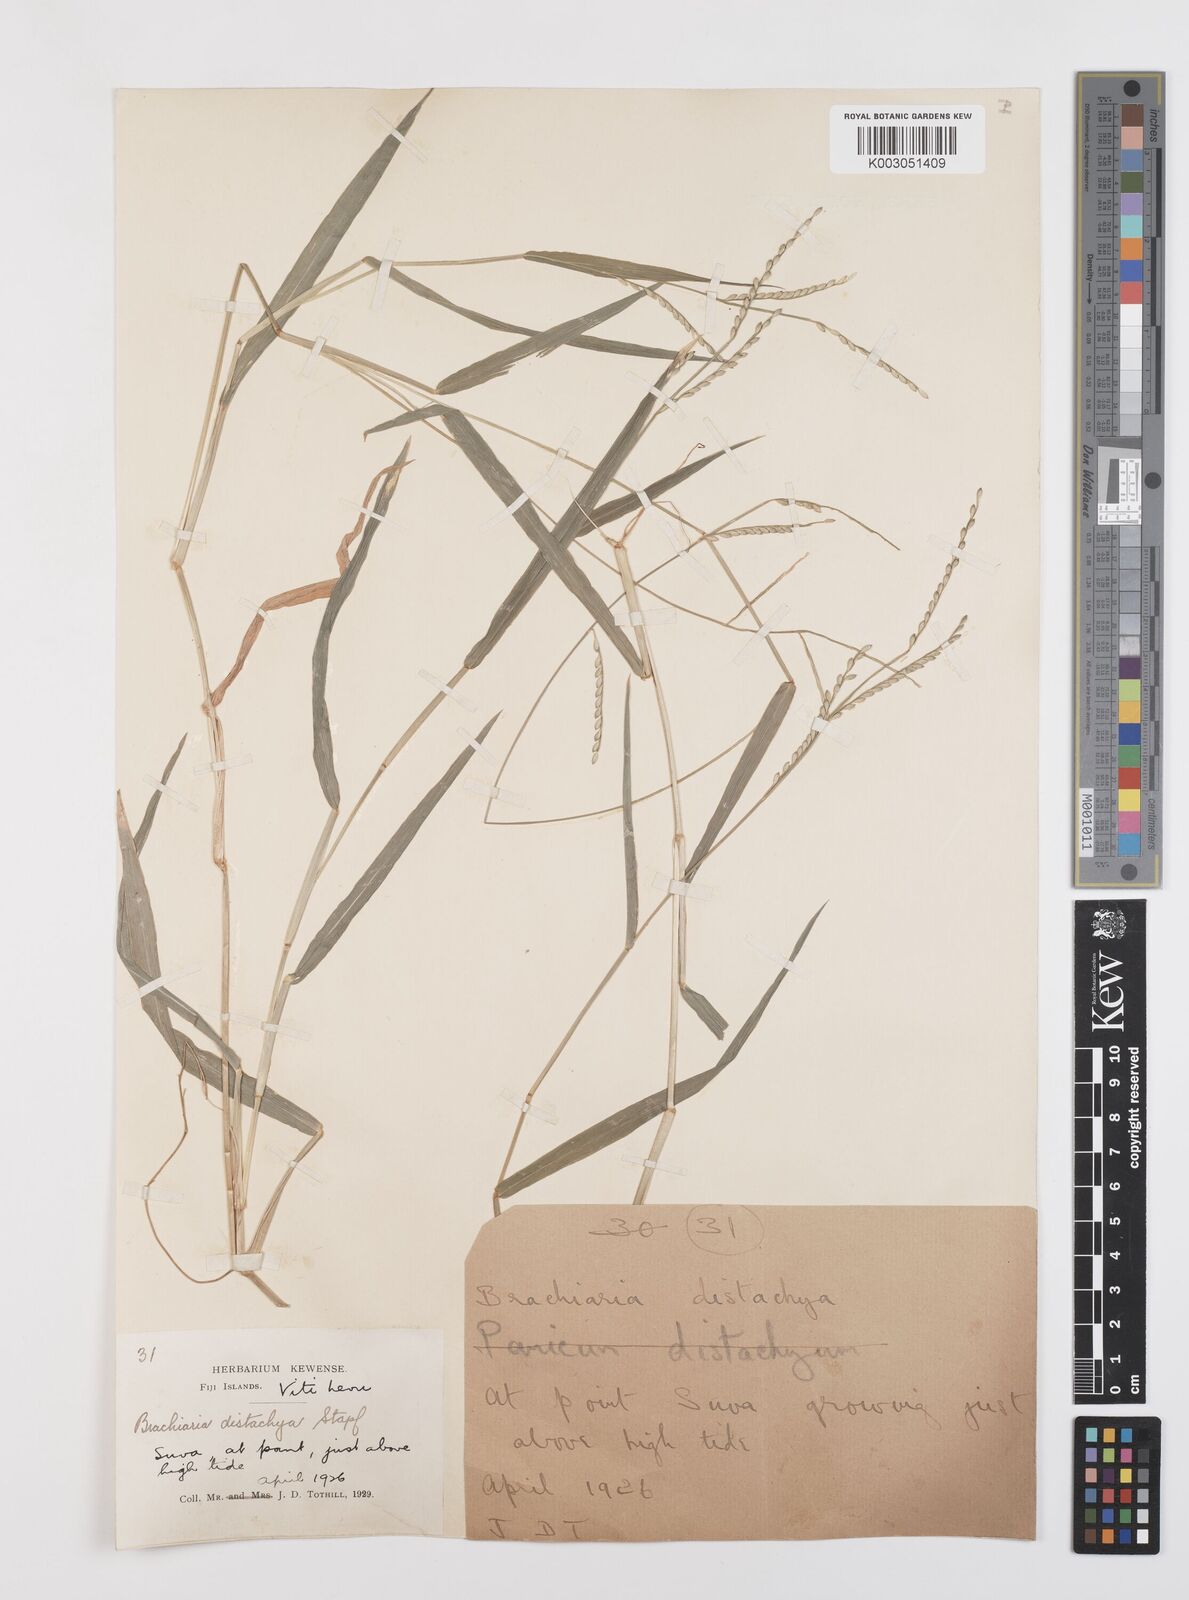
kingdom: Plantae
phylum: Tracheophyta
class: Liliopsida
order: Poales
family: Poaceae
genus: Urochloa
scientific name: Urochloa subquadripara
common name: Armgrass millet
